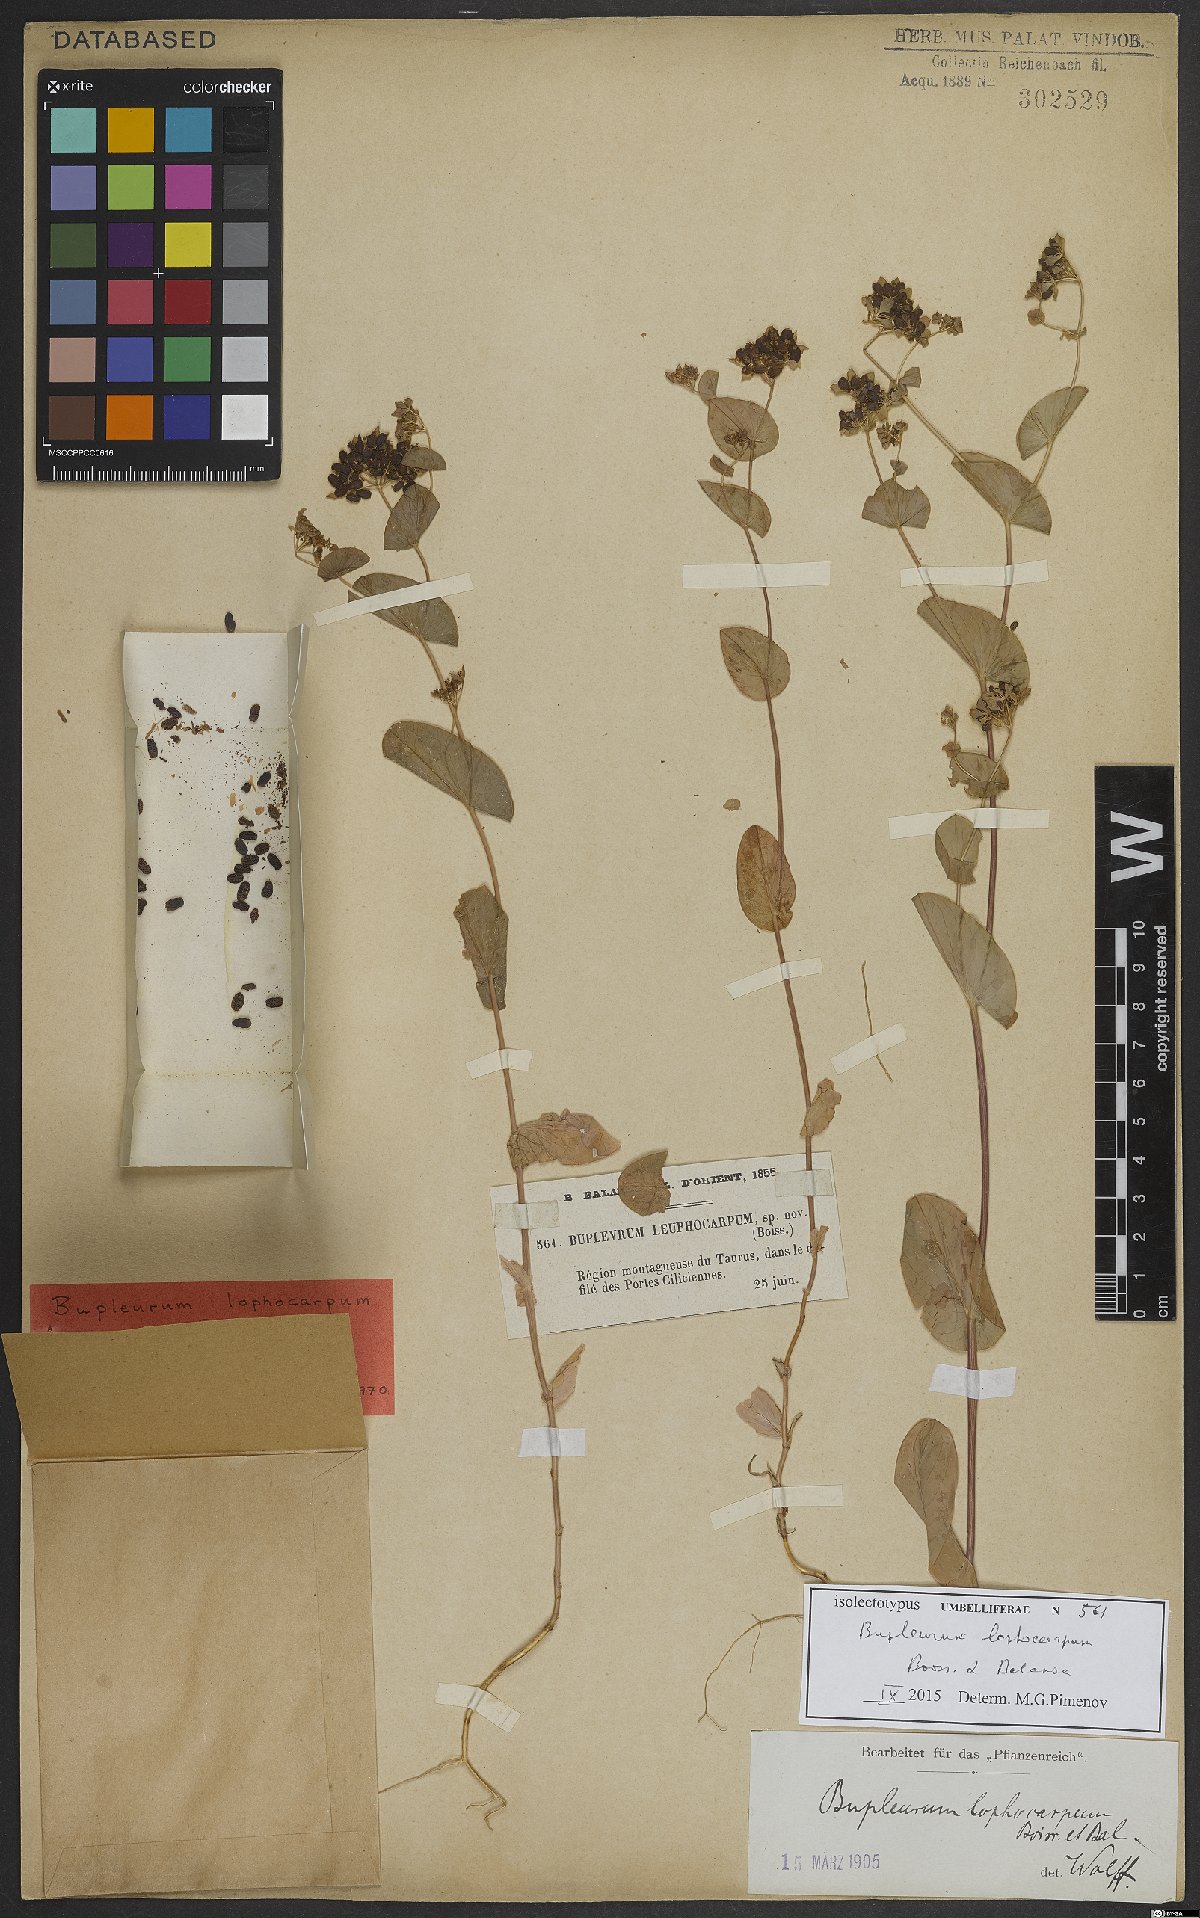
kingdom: Plantae
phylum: Tracheophyta
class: Magnoliopsida
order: Apiales
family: Apiaceae
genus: Bupleurum
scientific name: Bupleurum lophocarpum
